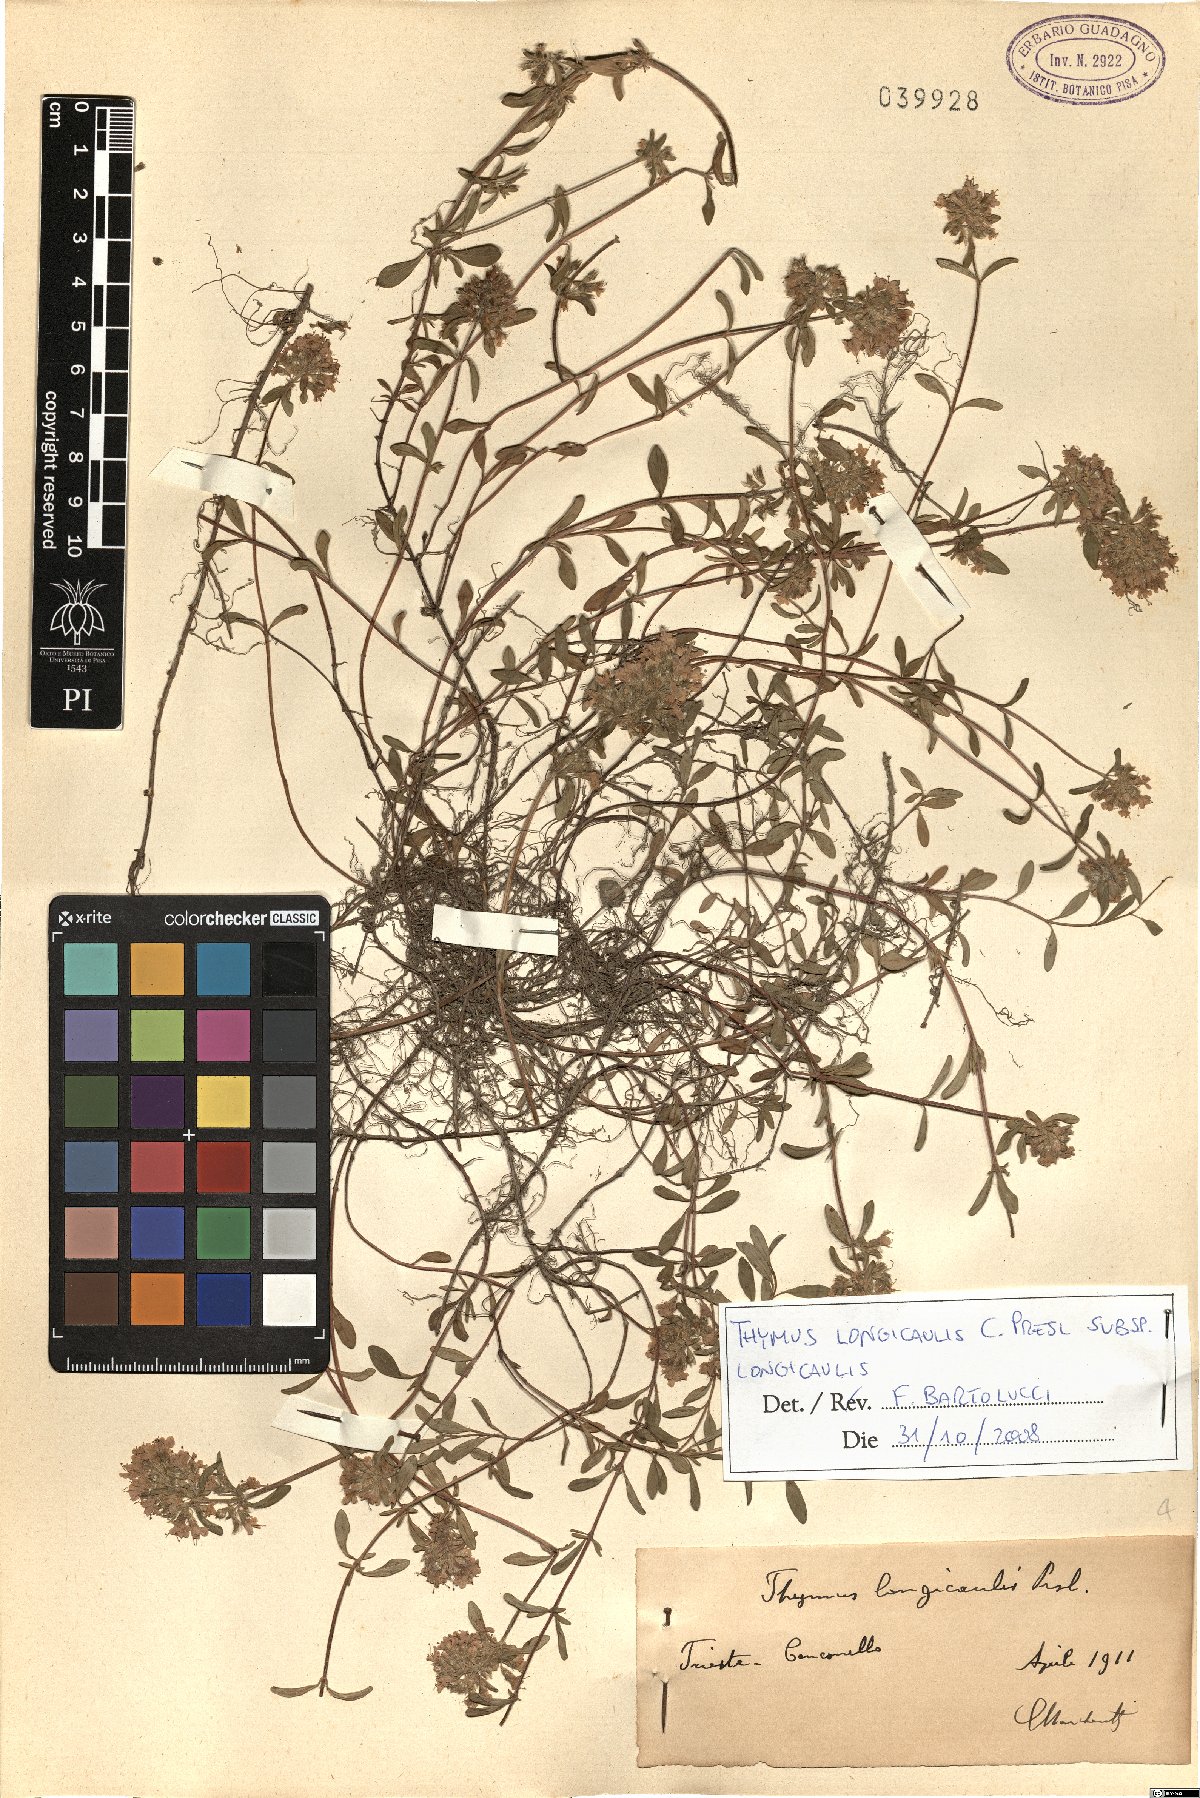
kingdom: Plantae
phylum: Tracheophyta
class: Magnoliopsida
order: Lamiales
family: Lamiaceae
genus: Thymus
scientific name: Thymus longicaulis
